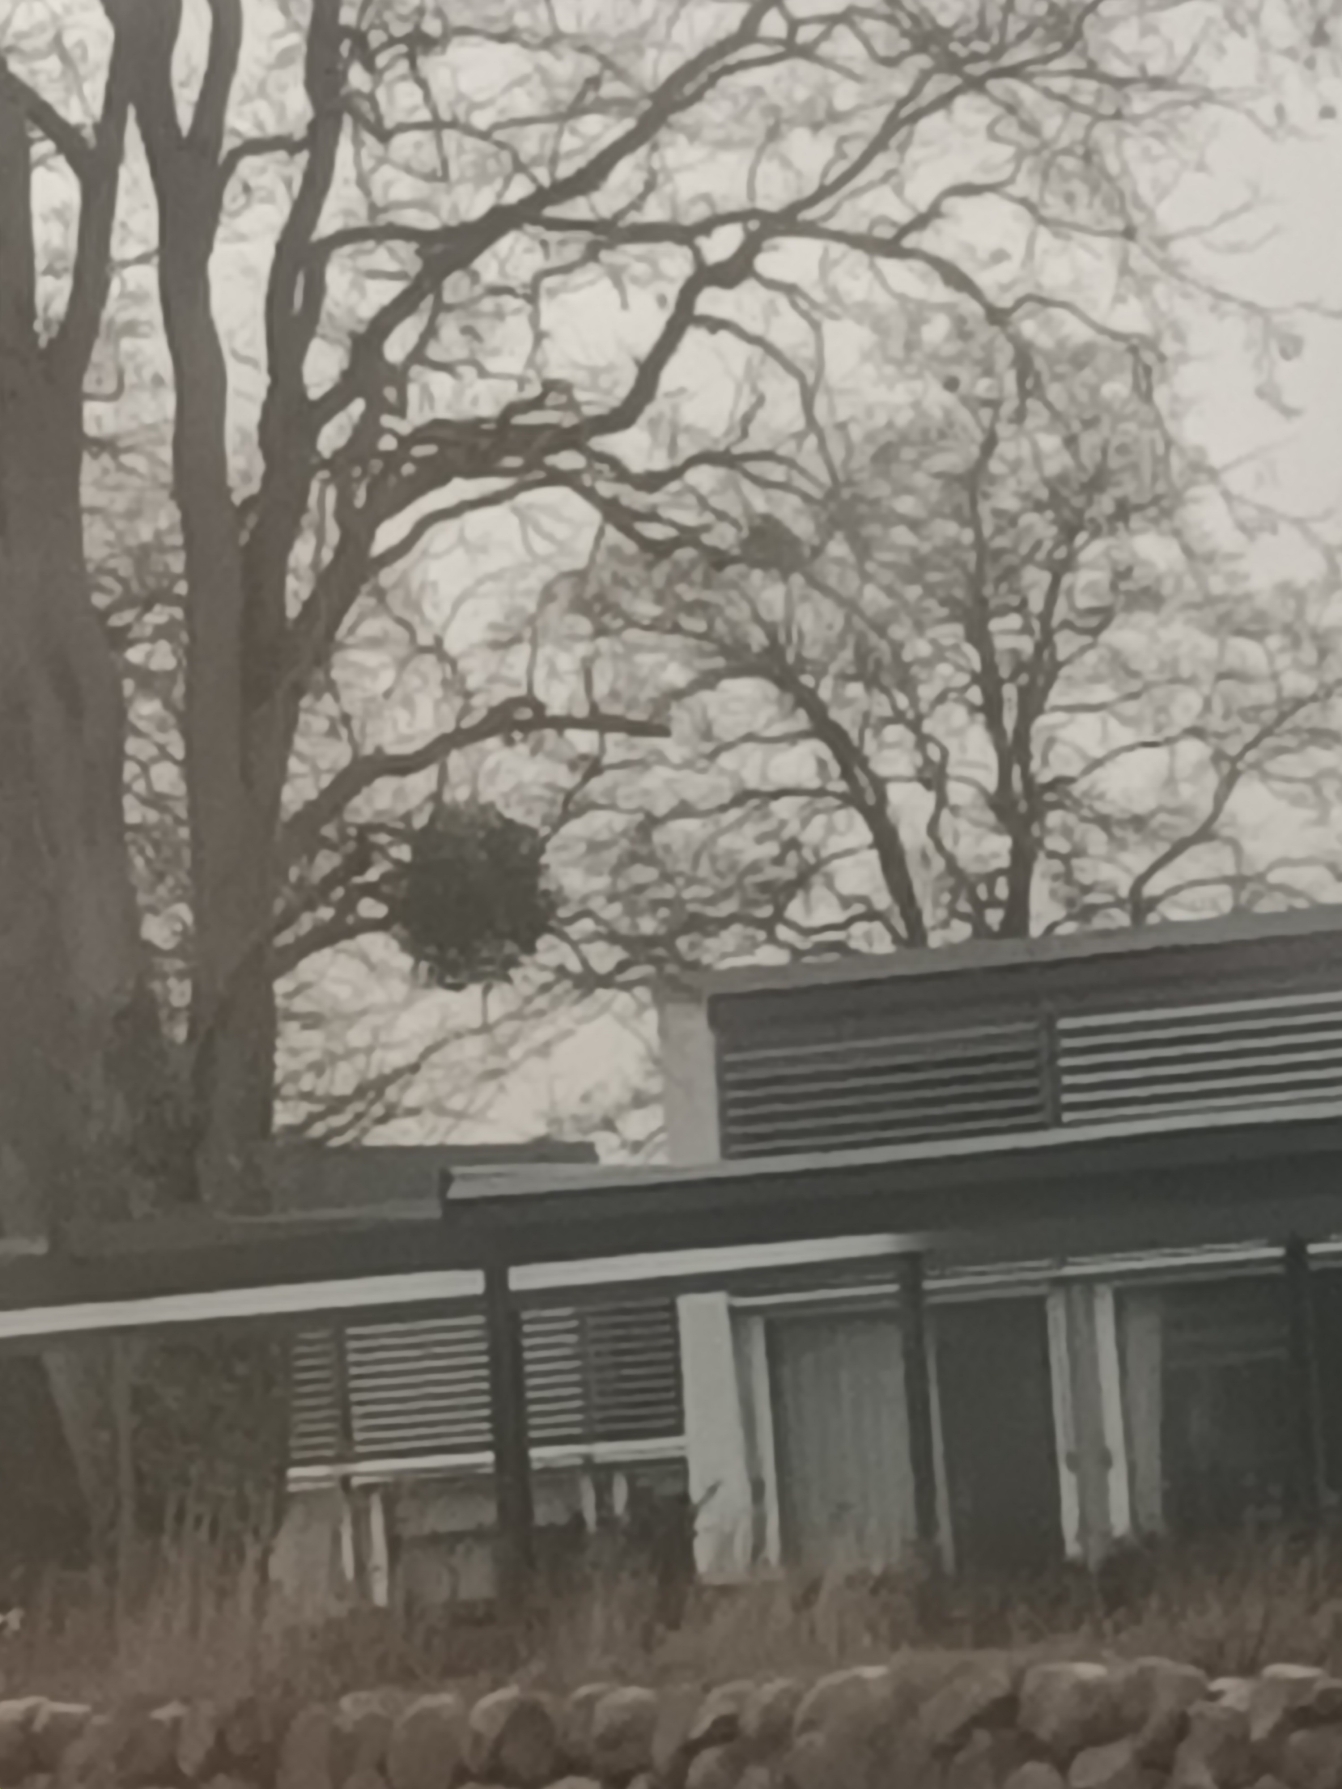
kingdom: Plantae
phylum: Tracheophyta
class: Magnoliopsida
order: Santalales
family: Viscaceae
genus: Viscum
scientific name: Viscum album
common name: Mistelten
